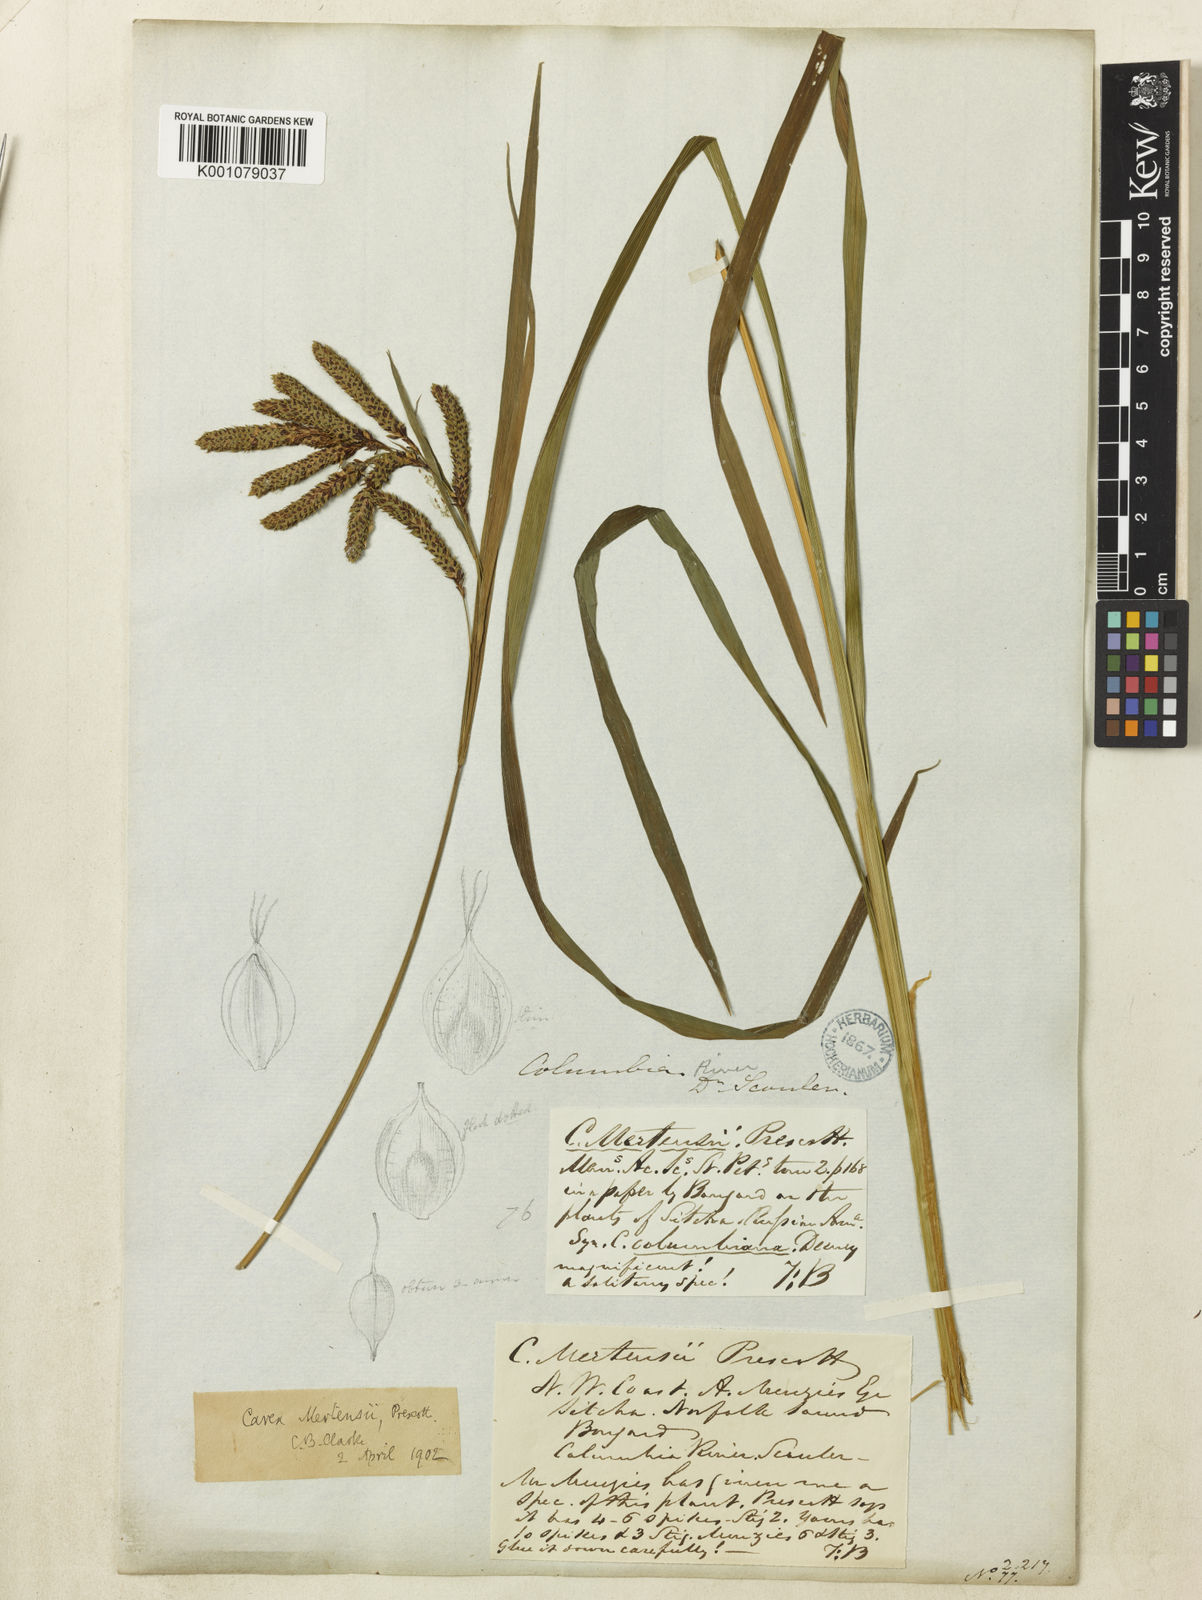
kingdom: Plantae
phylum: Tracheophyta
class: Liliopsida
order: Poales
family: Cyperaceae
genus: Carex
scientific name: Carex mertensii
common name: Mertens' sedge
